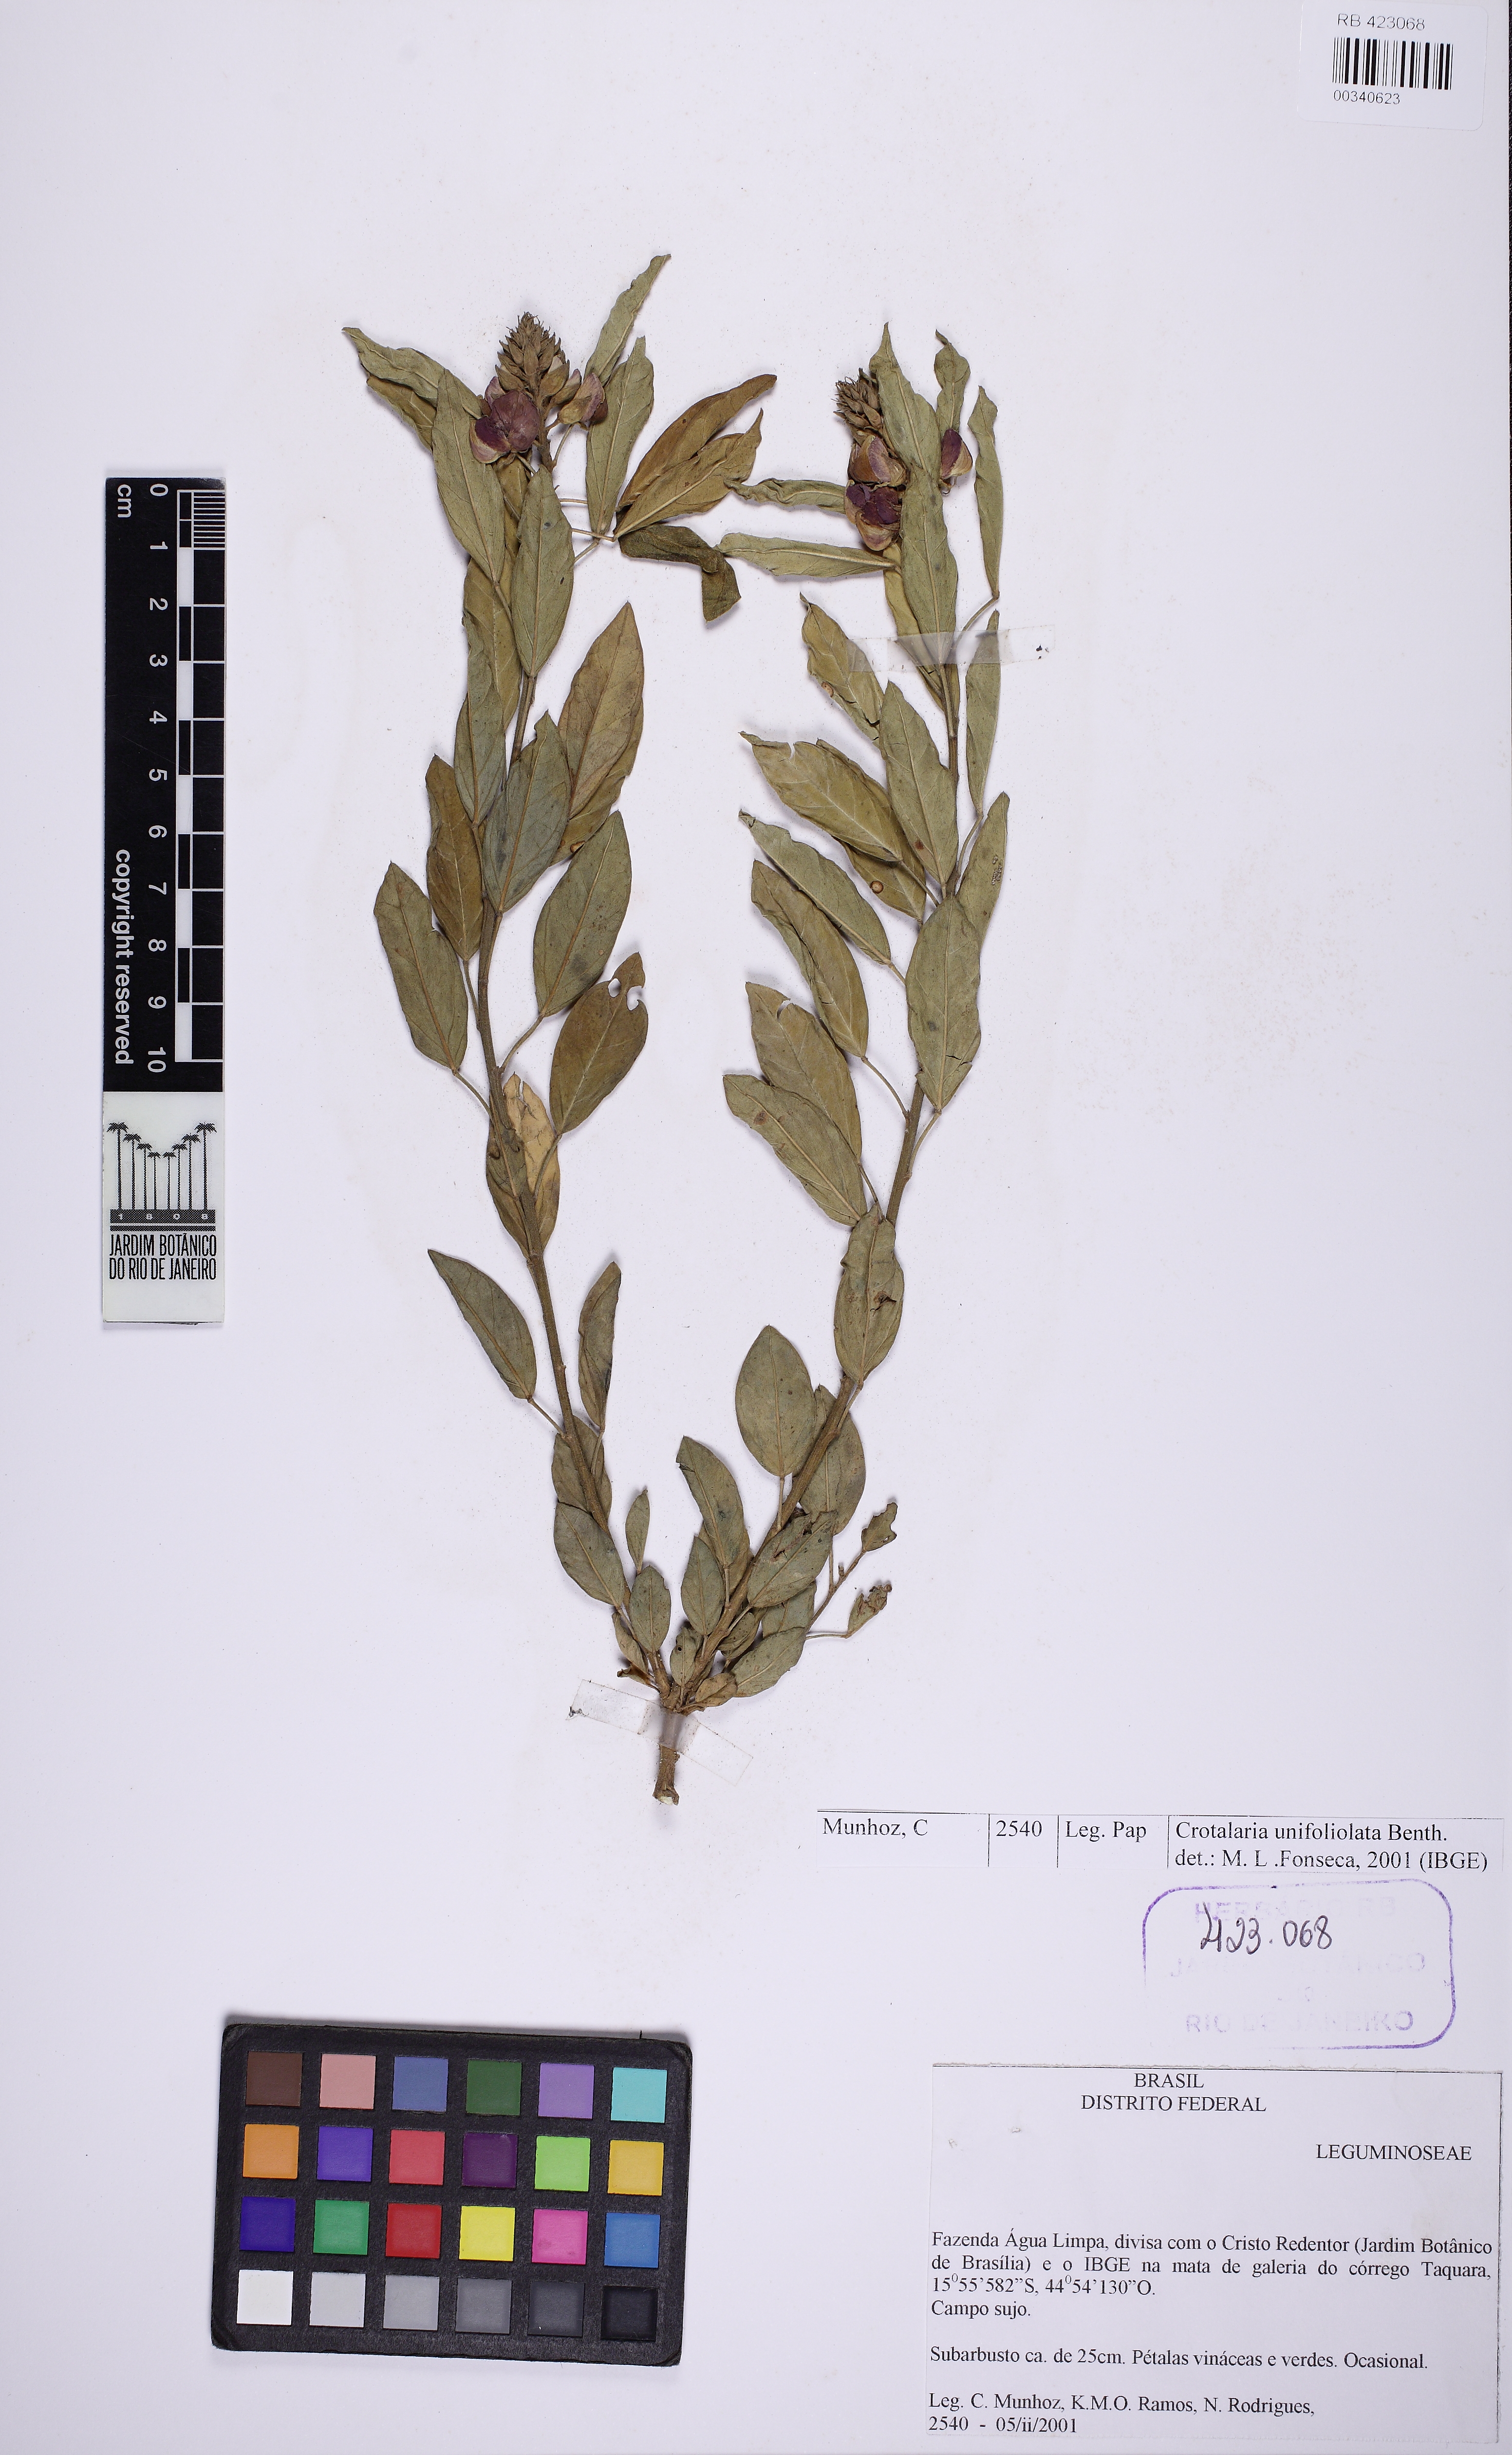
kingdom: Plantae
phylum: Tracheophyta
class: Magnoliopsida
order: Fabales
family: Fabaceae
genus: Crotalaria
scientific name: Crotalaria unifoliolata
